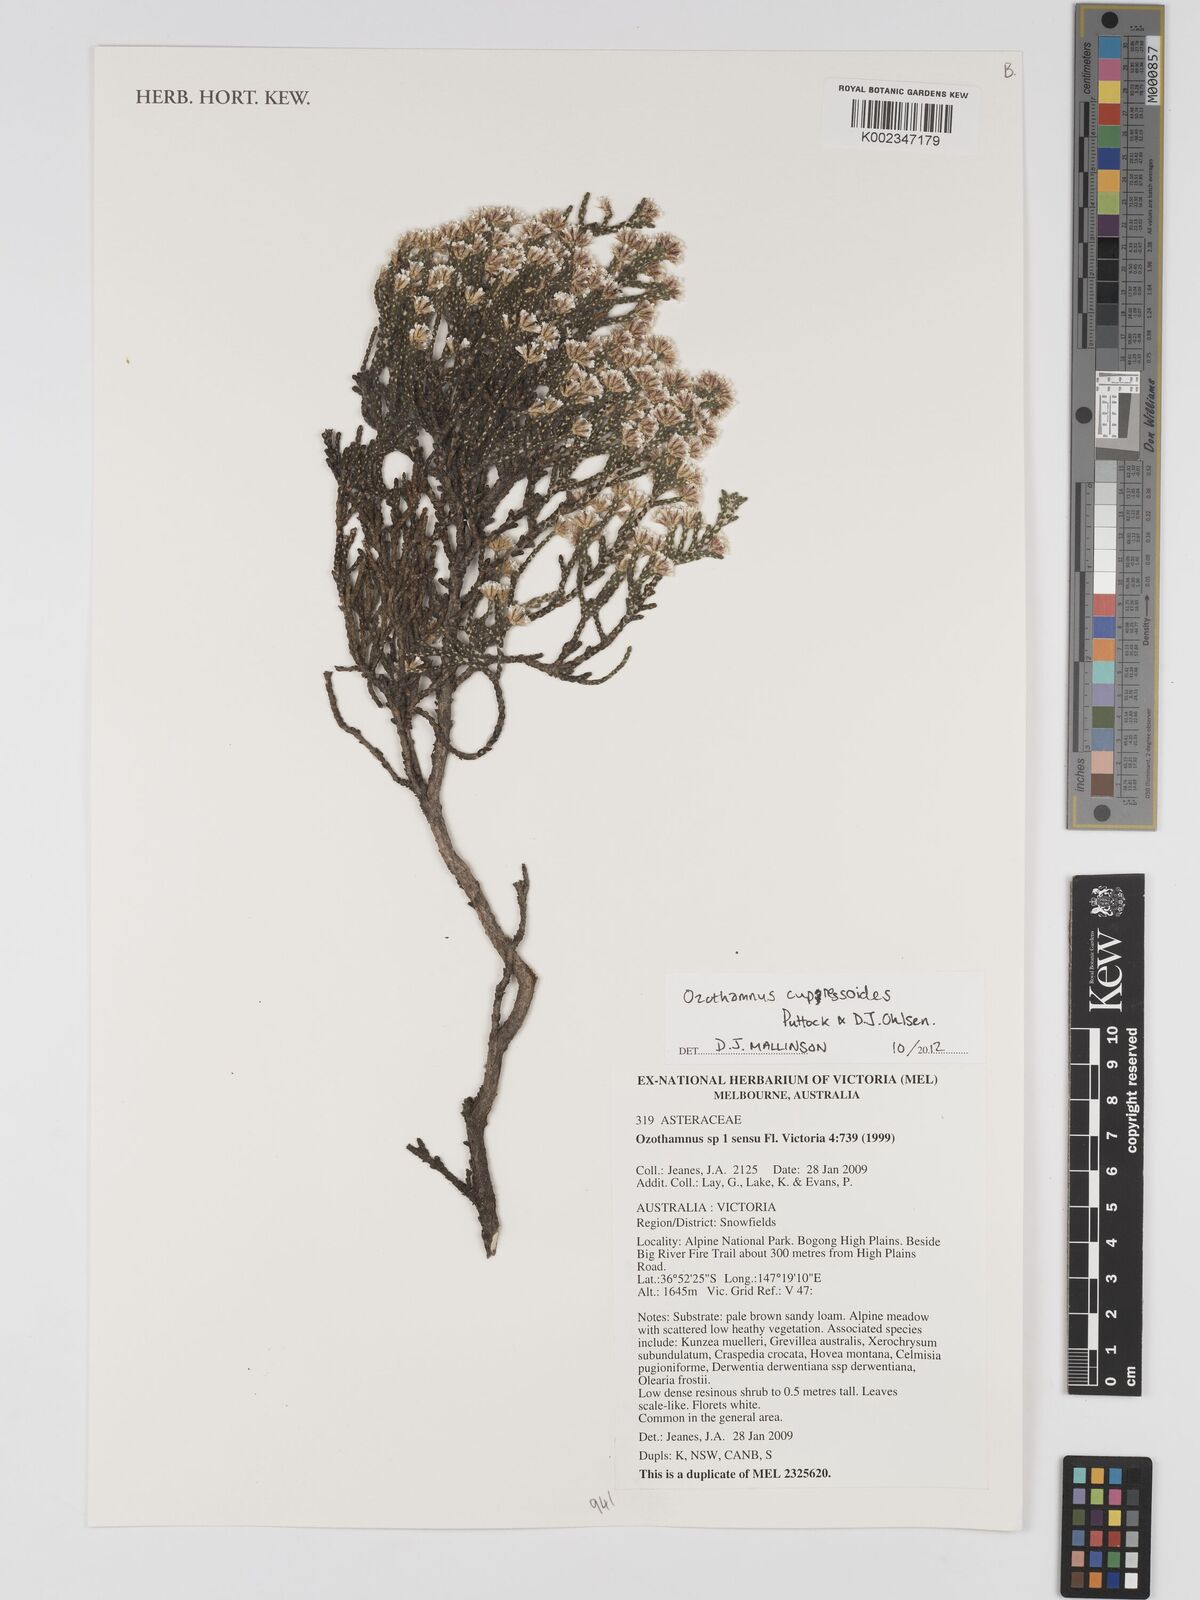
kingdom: Plantae
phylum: Tracheophyta
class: Magnoliopsida
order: Asterales
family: Asteraceae
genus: Ozothamnus
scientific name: Ozothamnus cupressoides
